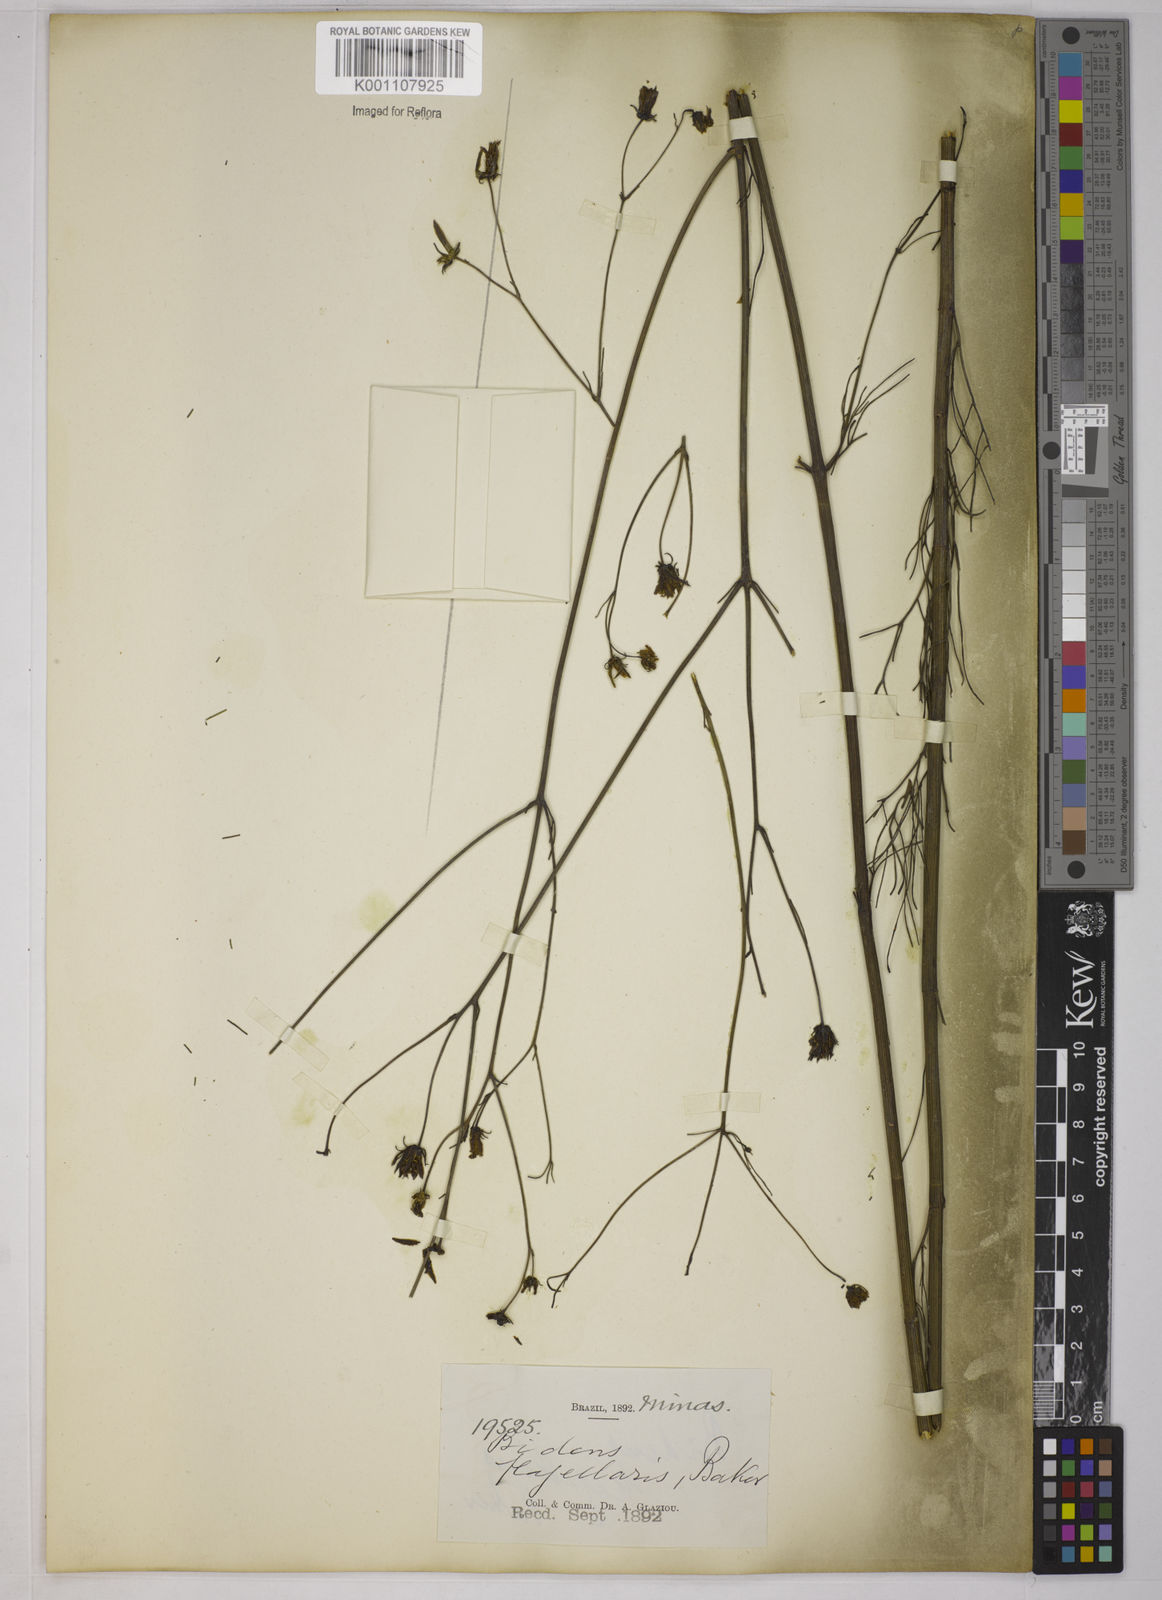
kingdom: Plantae
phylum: Tracheophyta
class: Magnoliopsida
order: Asterales
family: Asteraceae
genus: Bidens
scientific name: Bidens flagellaris
